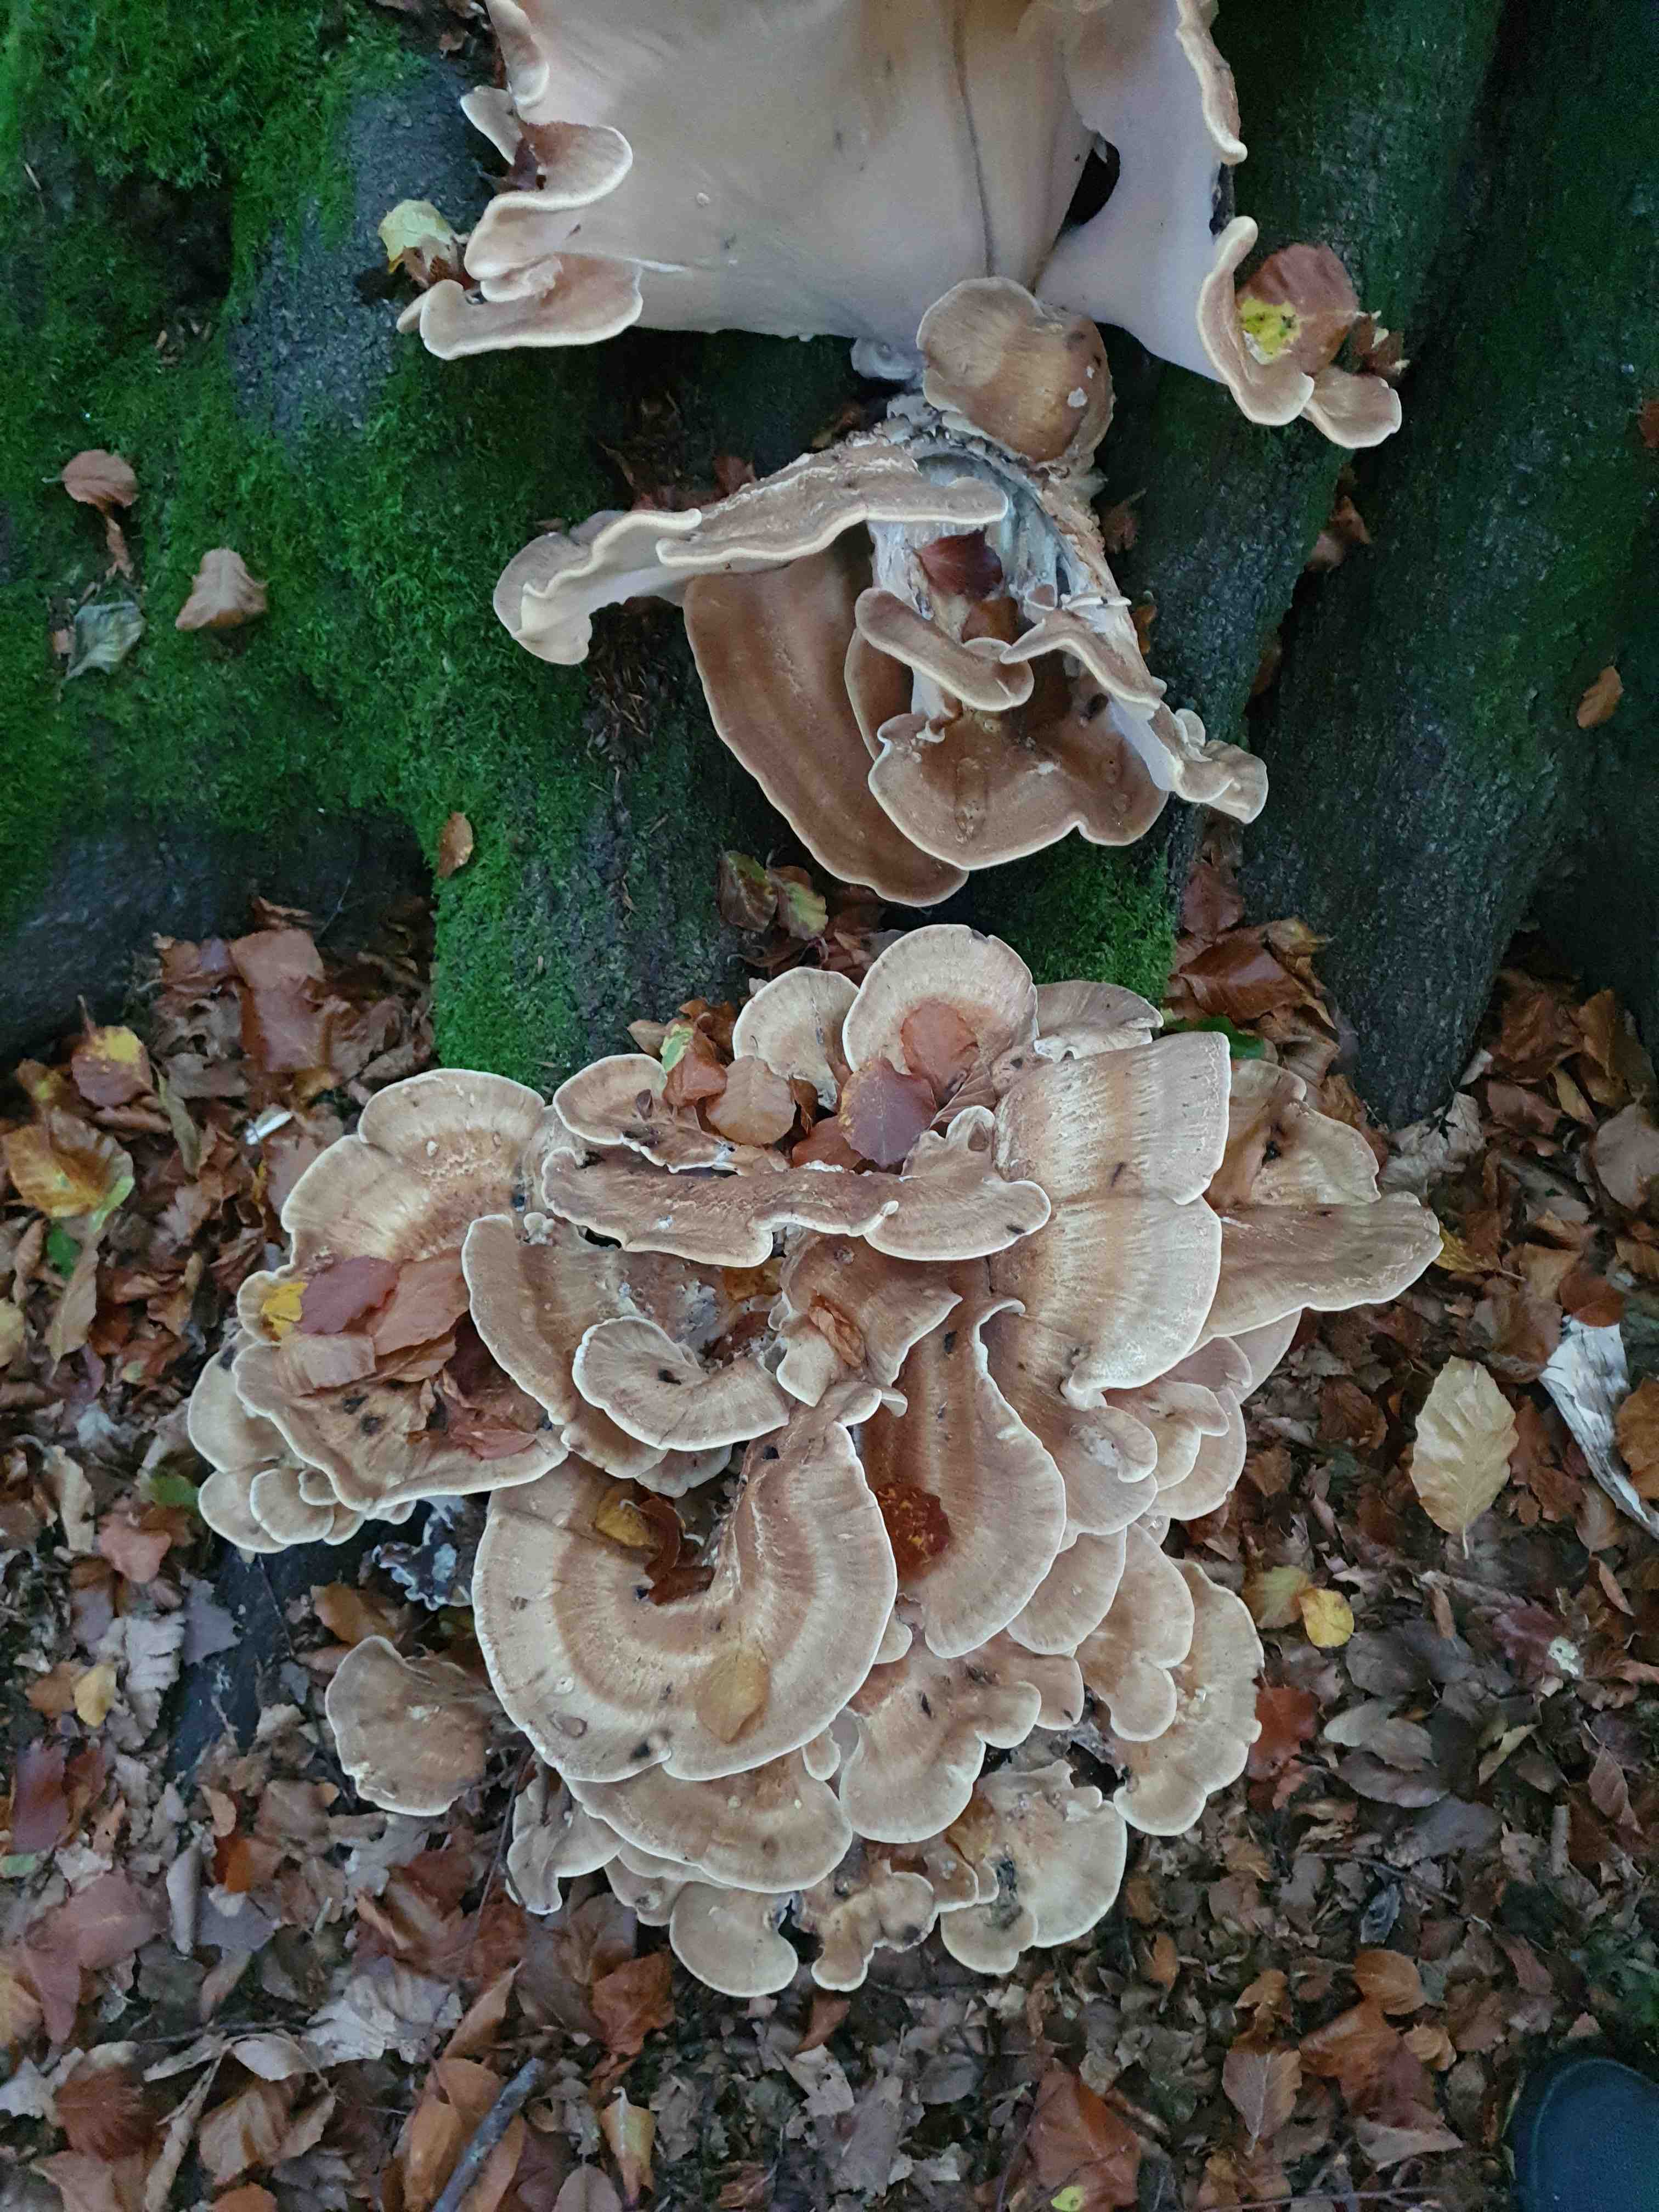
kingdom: Fungi
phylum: Basidiomycota
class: Agaricomycetes
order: Polyporales
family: Meripilaceae
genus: Meripilus
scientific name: Meripilus giganteus
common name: kæmpeporesvamp
